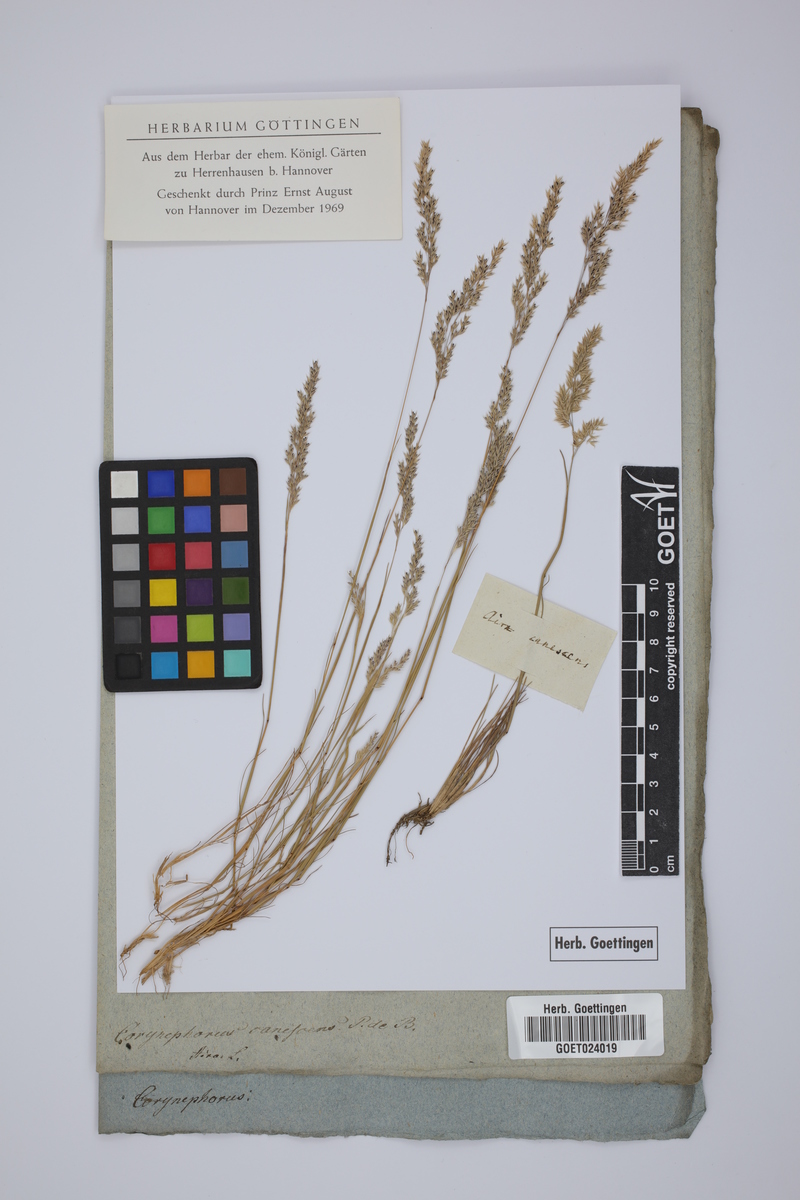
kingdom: Plantae
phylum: Tracheophyta
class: Liliopsida
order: Poales
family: Poaceae
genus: Corynephorus
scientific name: Corynephorus canescens
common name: Grey hair-grass
